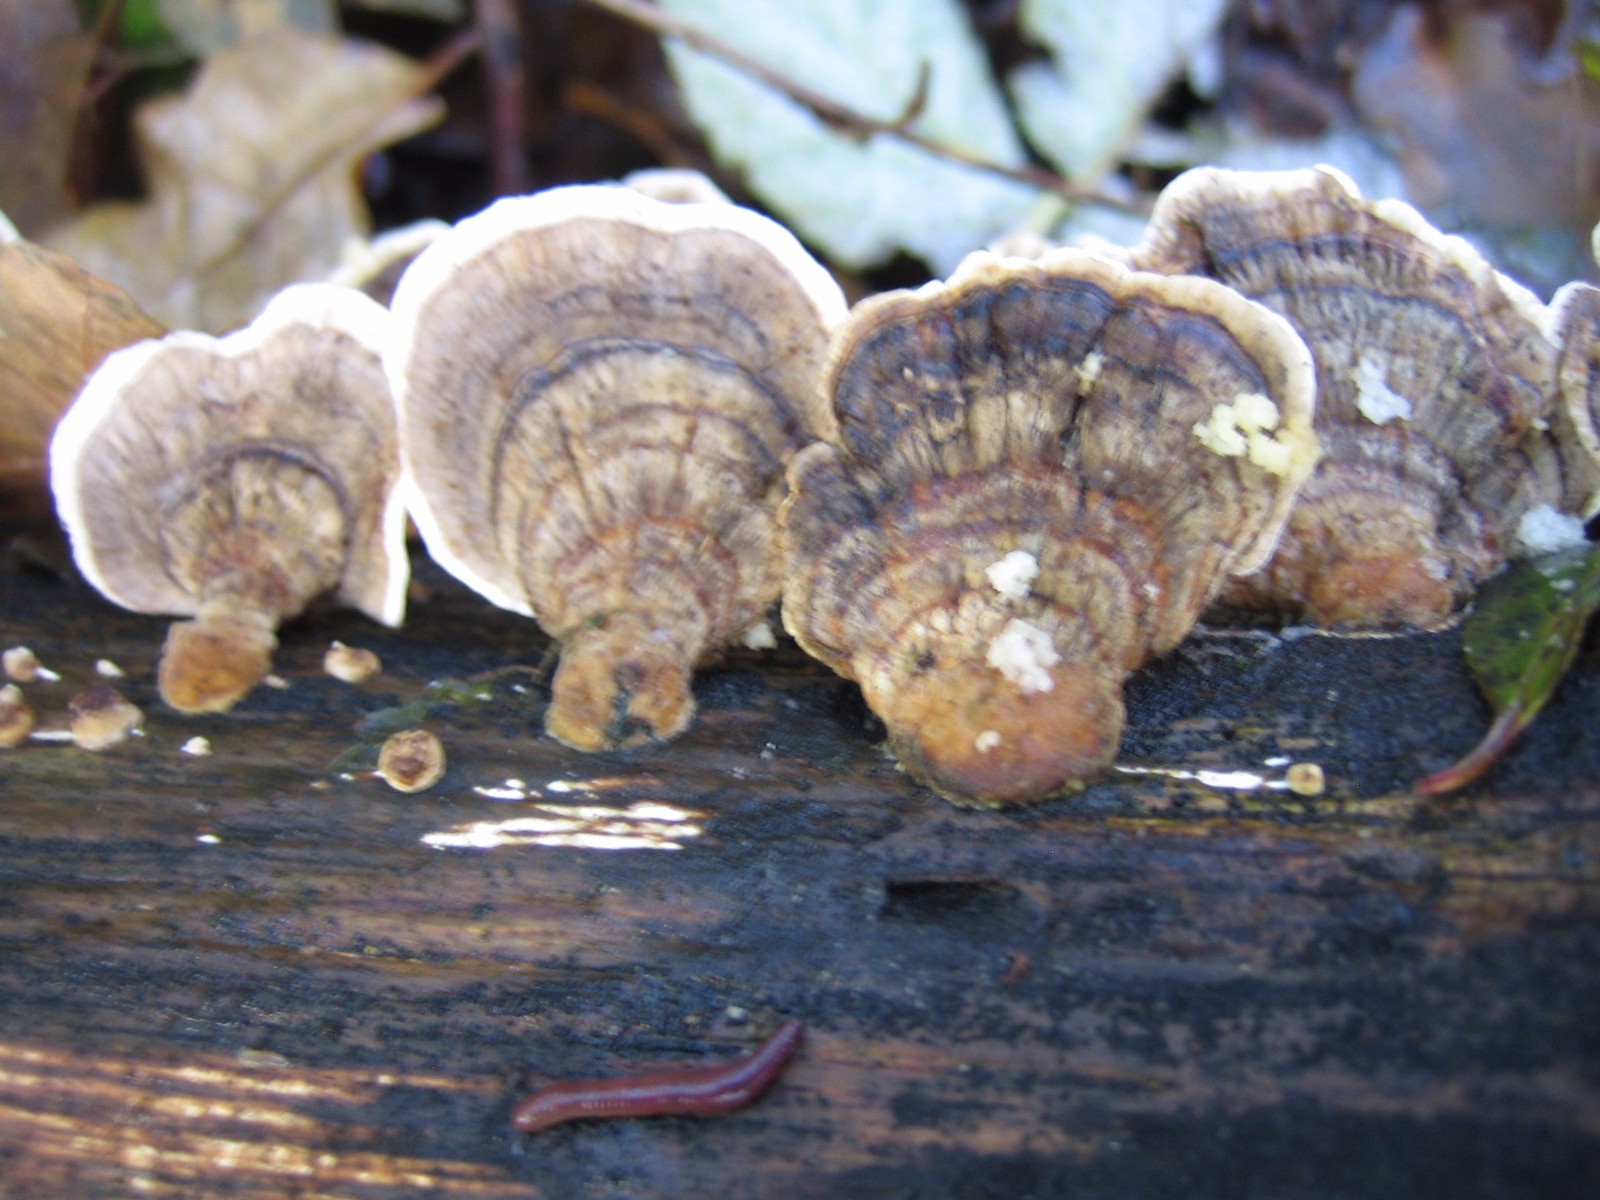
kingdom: Fungi
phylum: Basidiomycota
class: Agaricomycetes
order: Polyporales
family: Polyporaceae
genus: Trametes
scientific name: Trametes versicolor
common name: broget læderporesvamp
